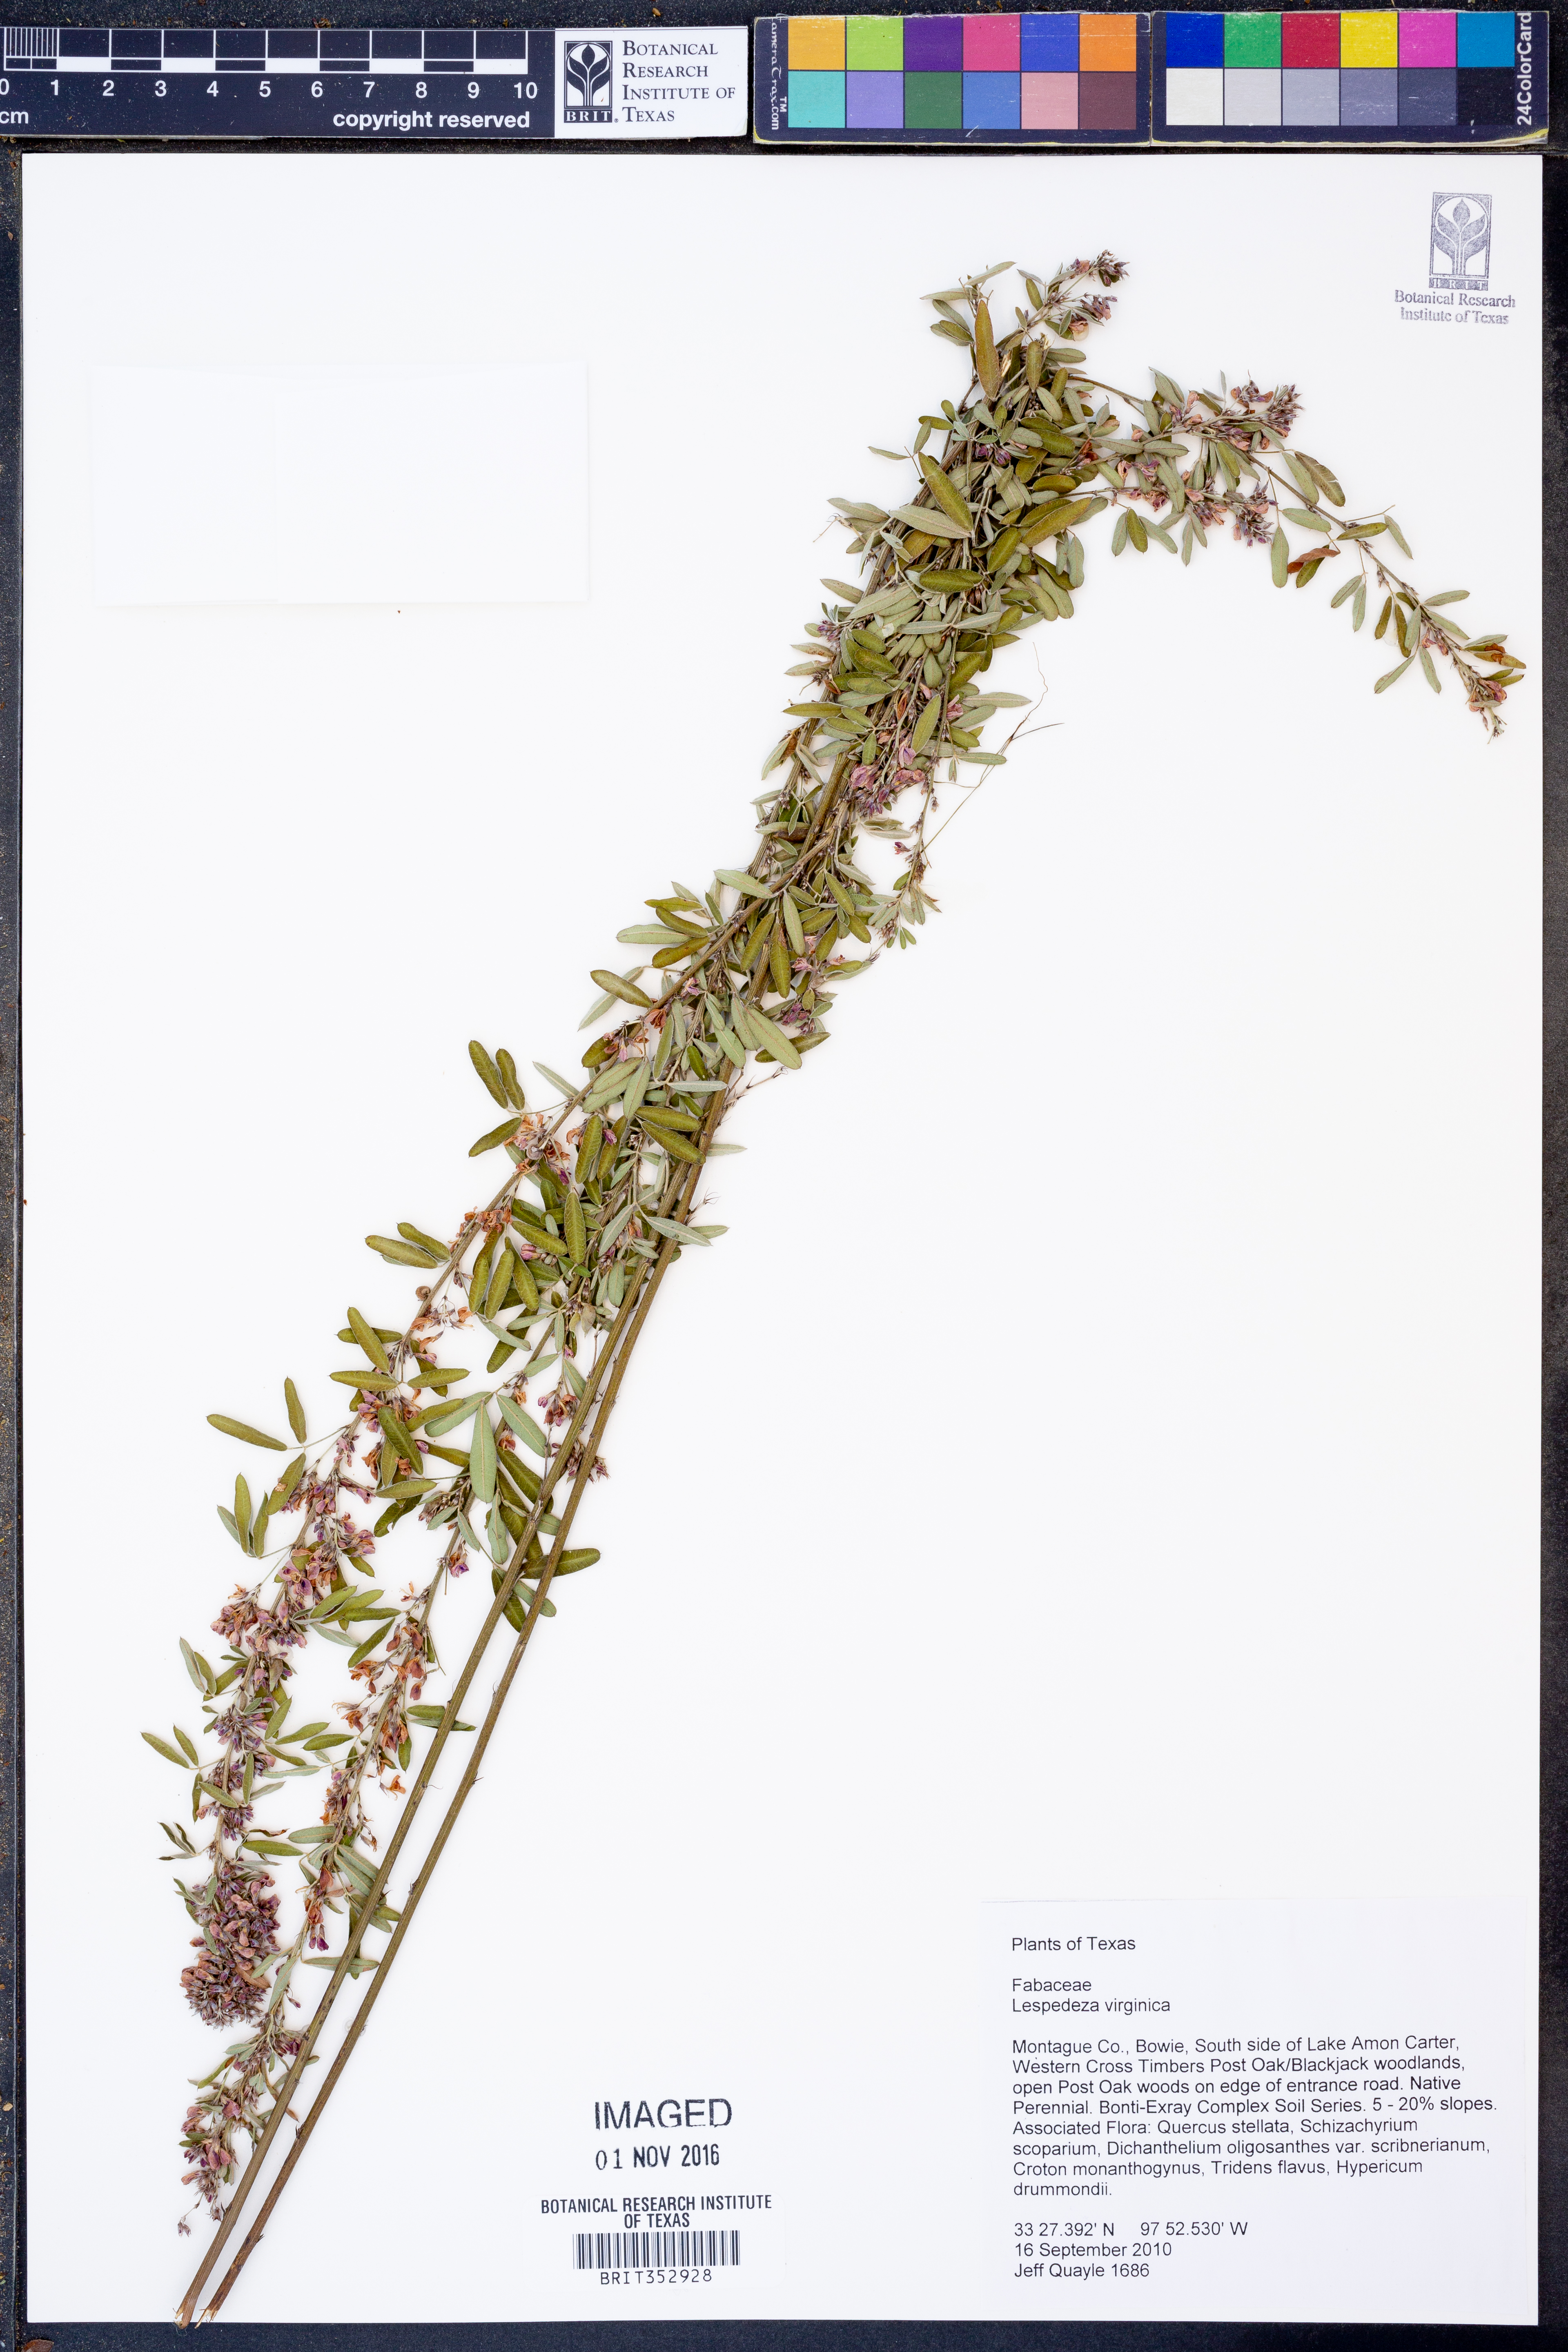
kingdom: Plantae
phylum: Tracheophyta
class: Magnoliopsida
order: Fabales
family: Fabaceae
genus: Lespedeza
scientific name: Lespedeza virginica
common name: Slender bush-clover
